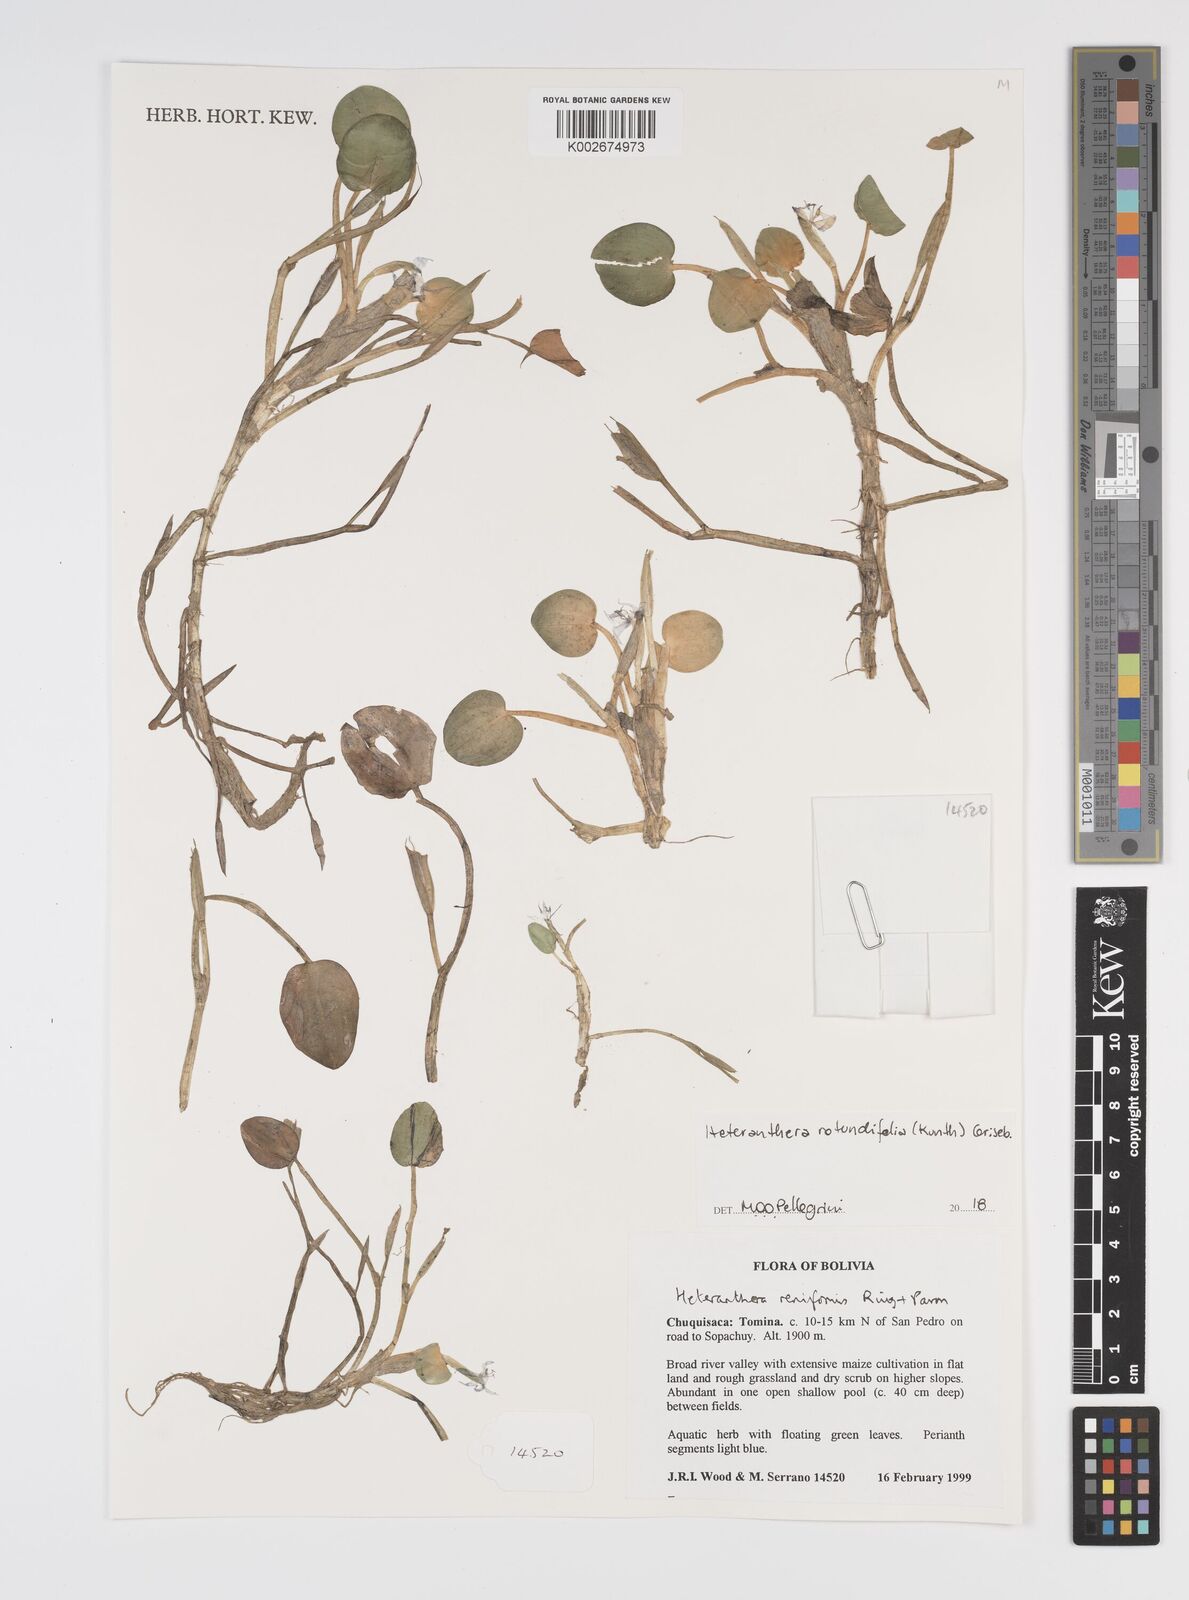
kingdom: Plantae
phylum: Tracheophyta
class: Liliopsida
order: Commelinales
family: Pontederiaceae
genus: Heteranthera
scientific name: Heteranthera rotundifolia
